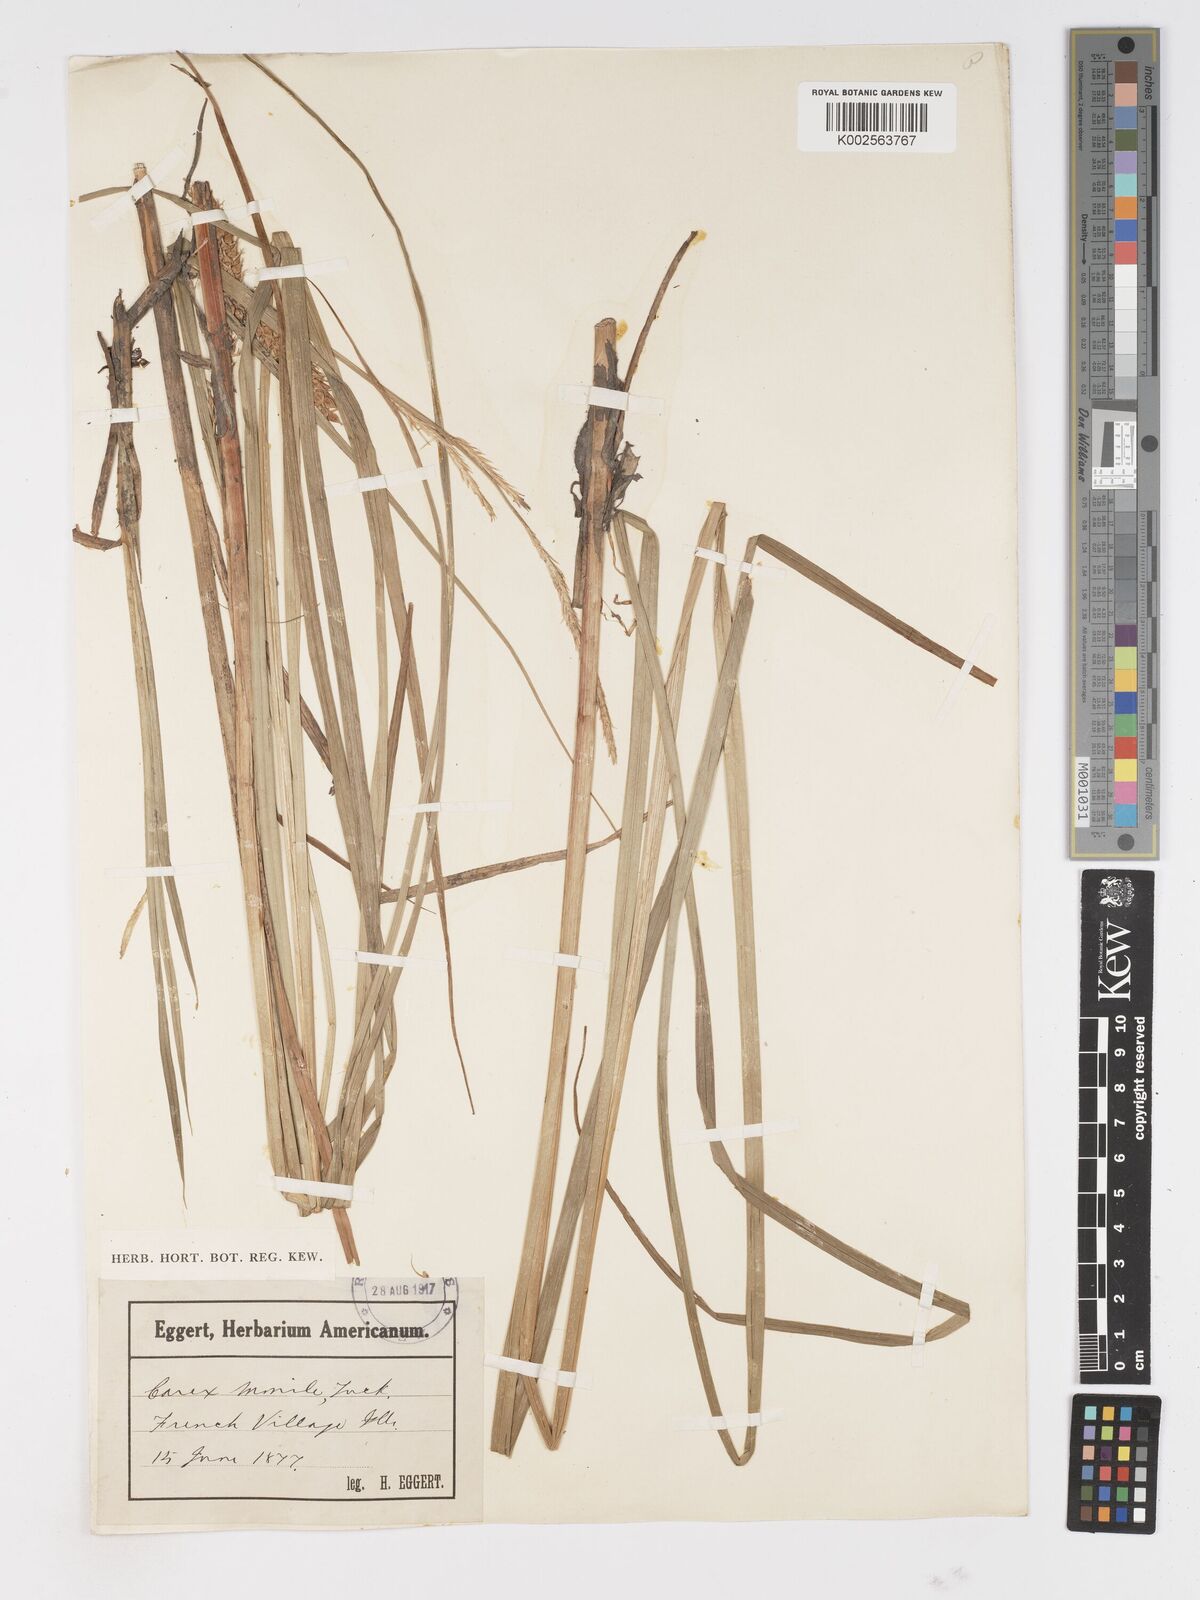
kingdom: Plantae
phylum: Tracheophyta
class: Liliopsida
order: Poales
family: Cyperaceae
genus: Carex
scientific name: Carex vesicaria
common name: Bladder-sedge
